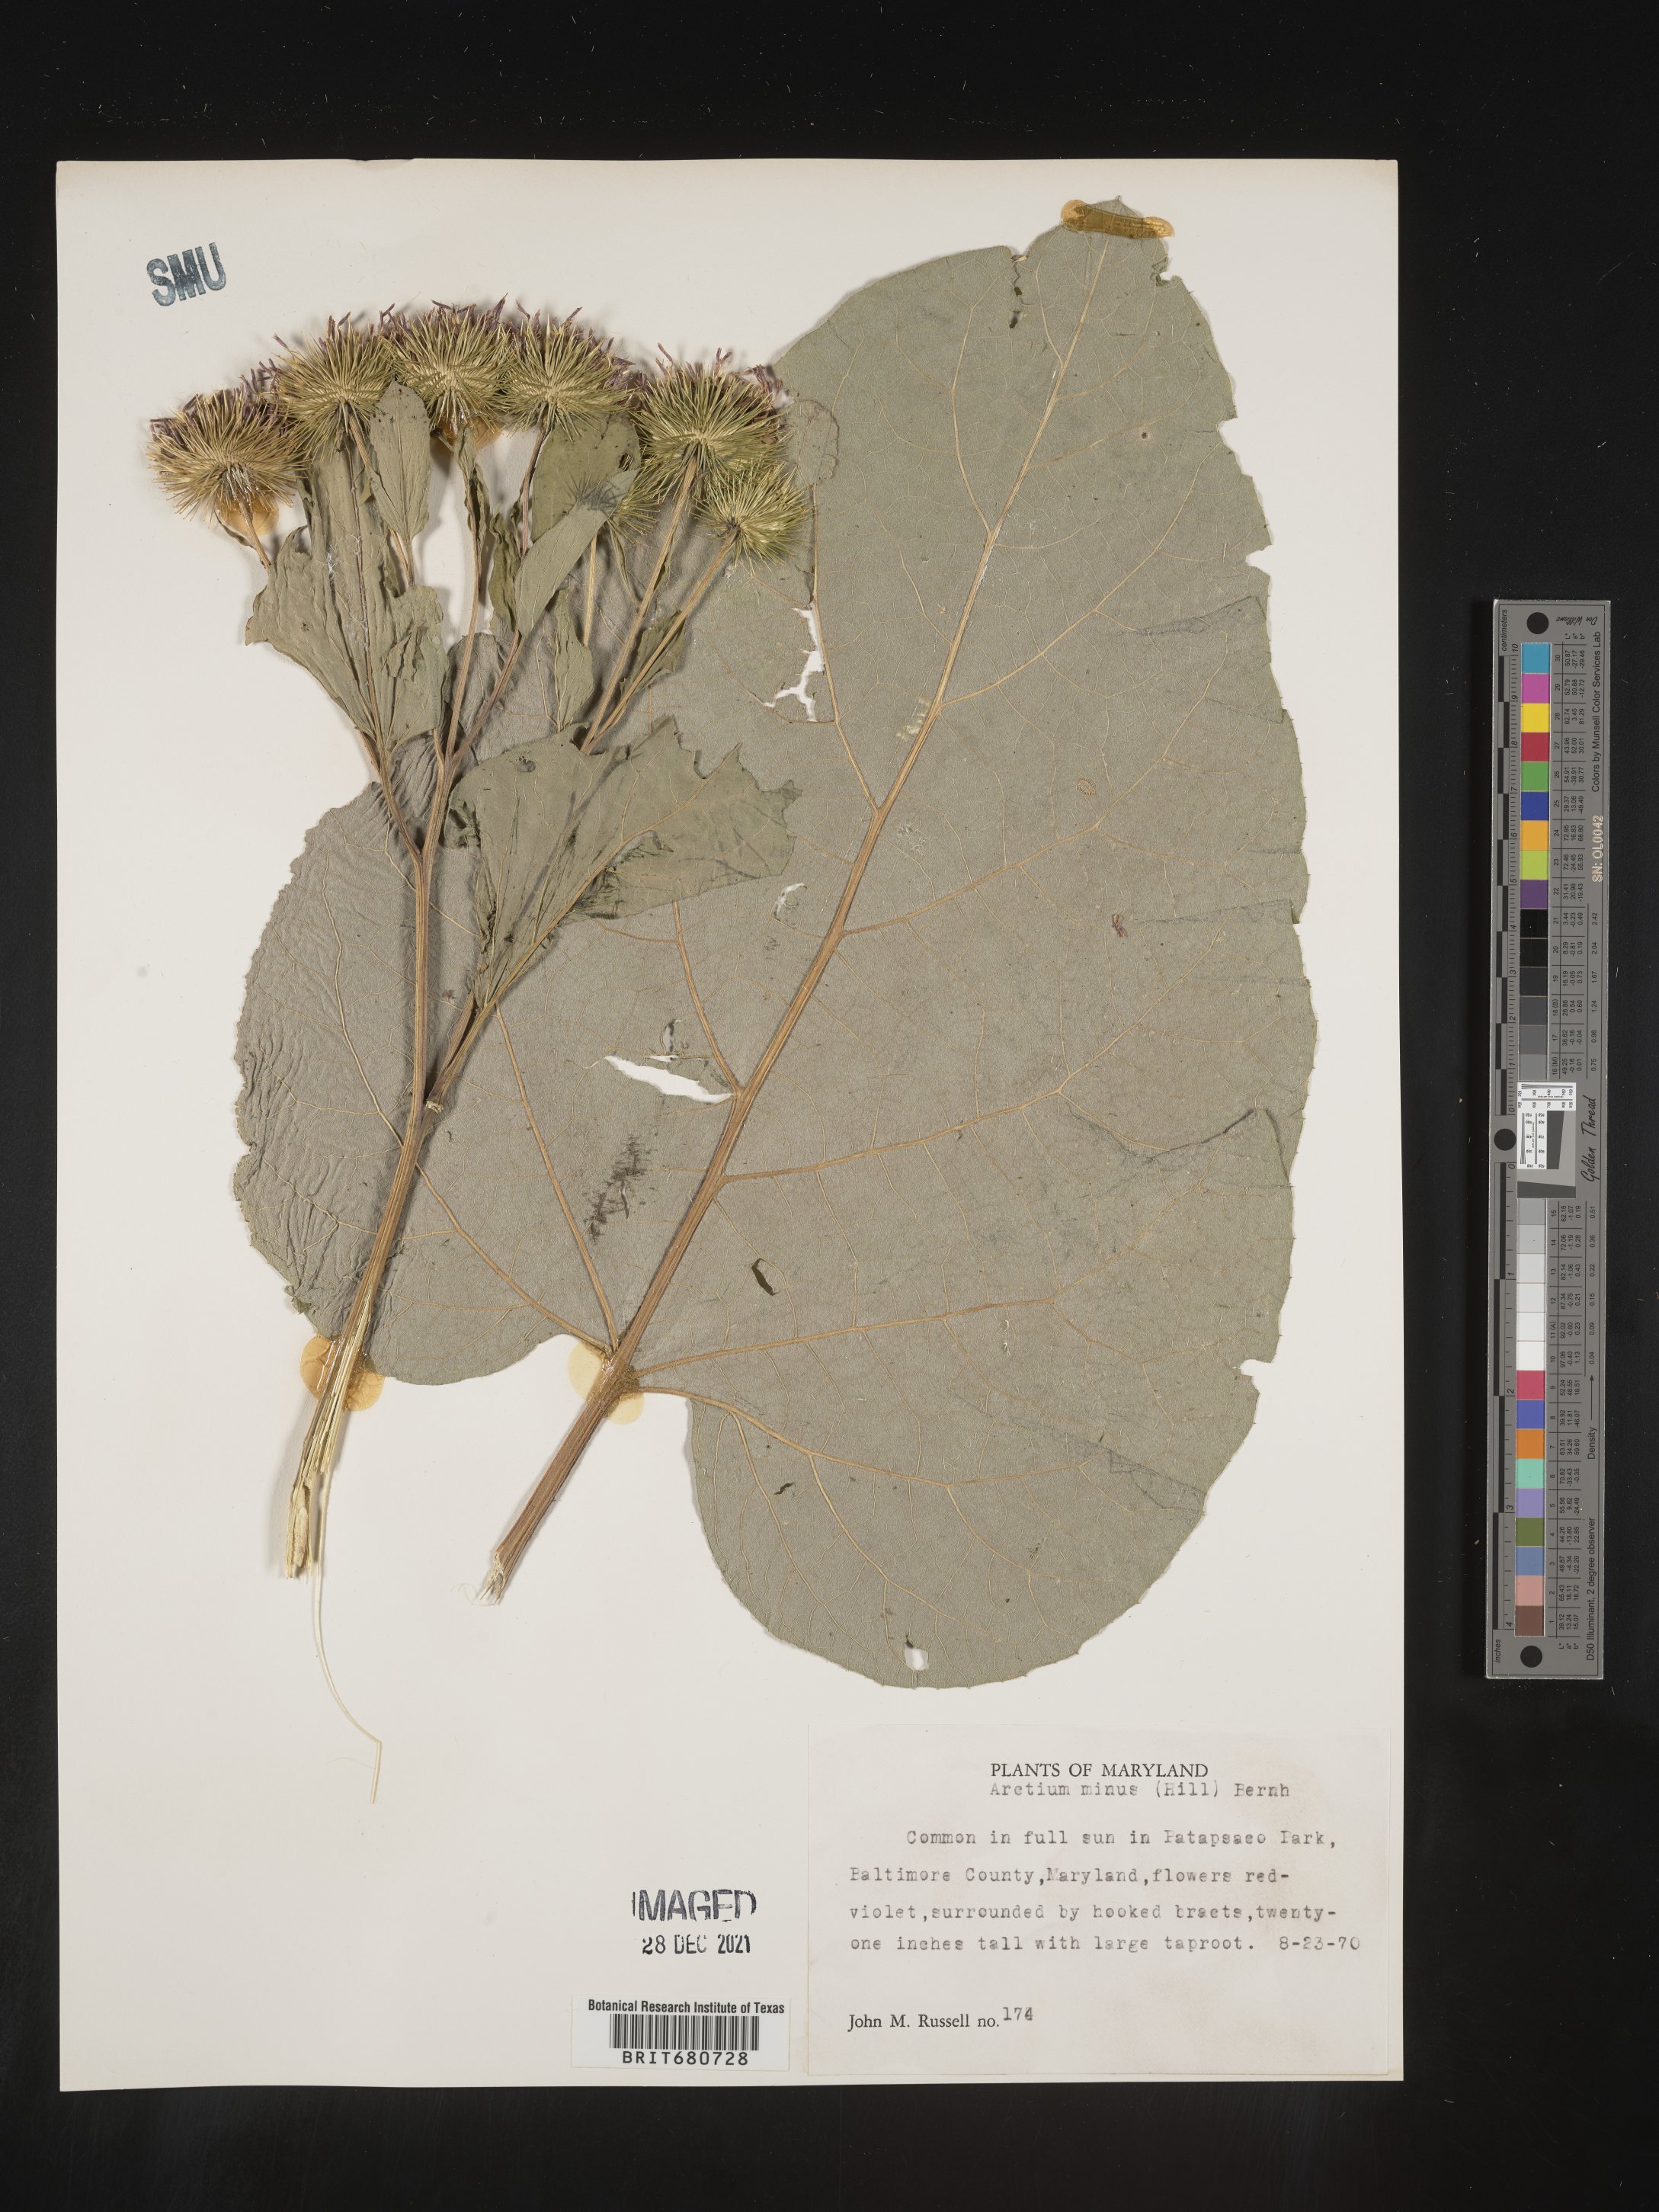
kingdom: Plantae
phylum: Tracheophyta
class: Magnoliopsida
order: Asterales
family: Asteraceae
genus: Arctium
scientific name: Arctium minus
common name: Lesser burdock
